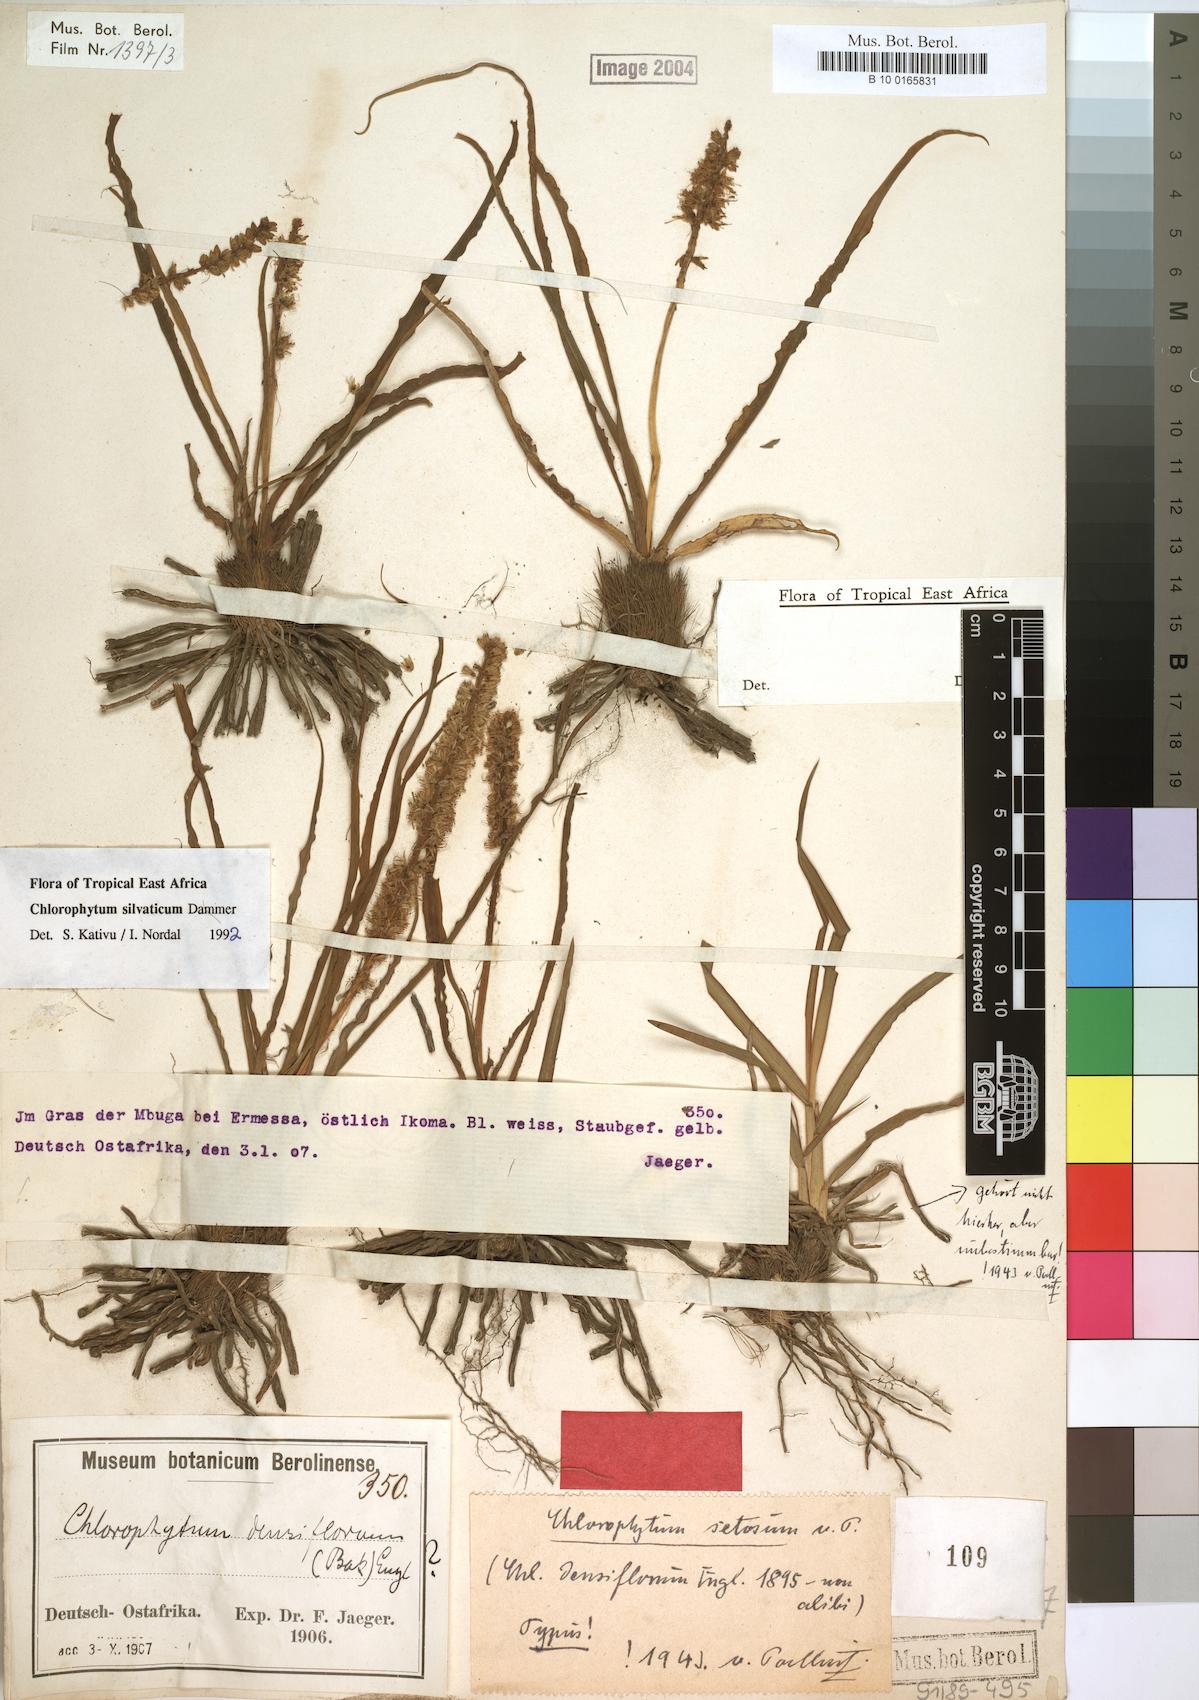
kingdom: Plantae
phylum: Tracheophyta
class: Liliopsida
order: Asparagales
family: Asparagaceae
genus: Chlorophytum
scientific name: Chlorophytum africanum
